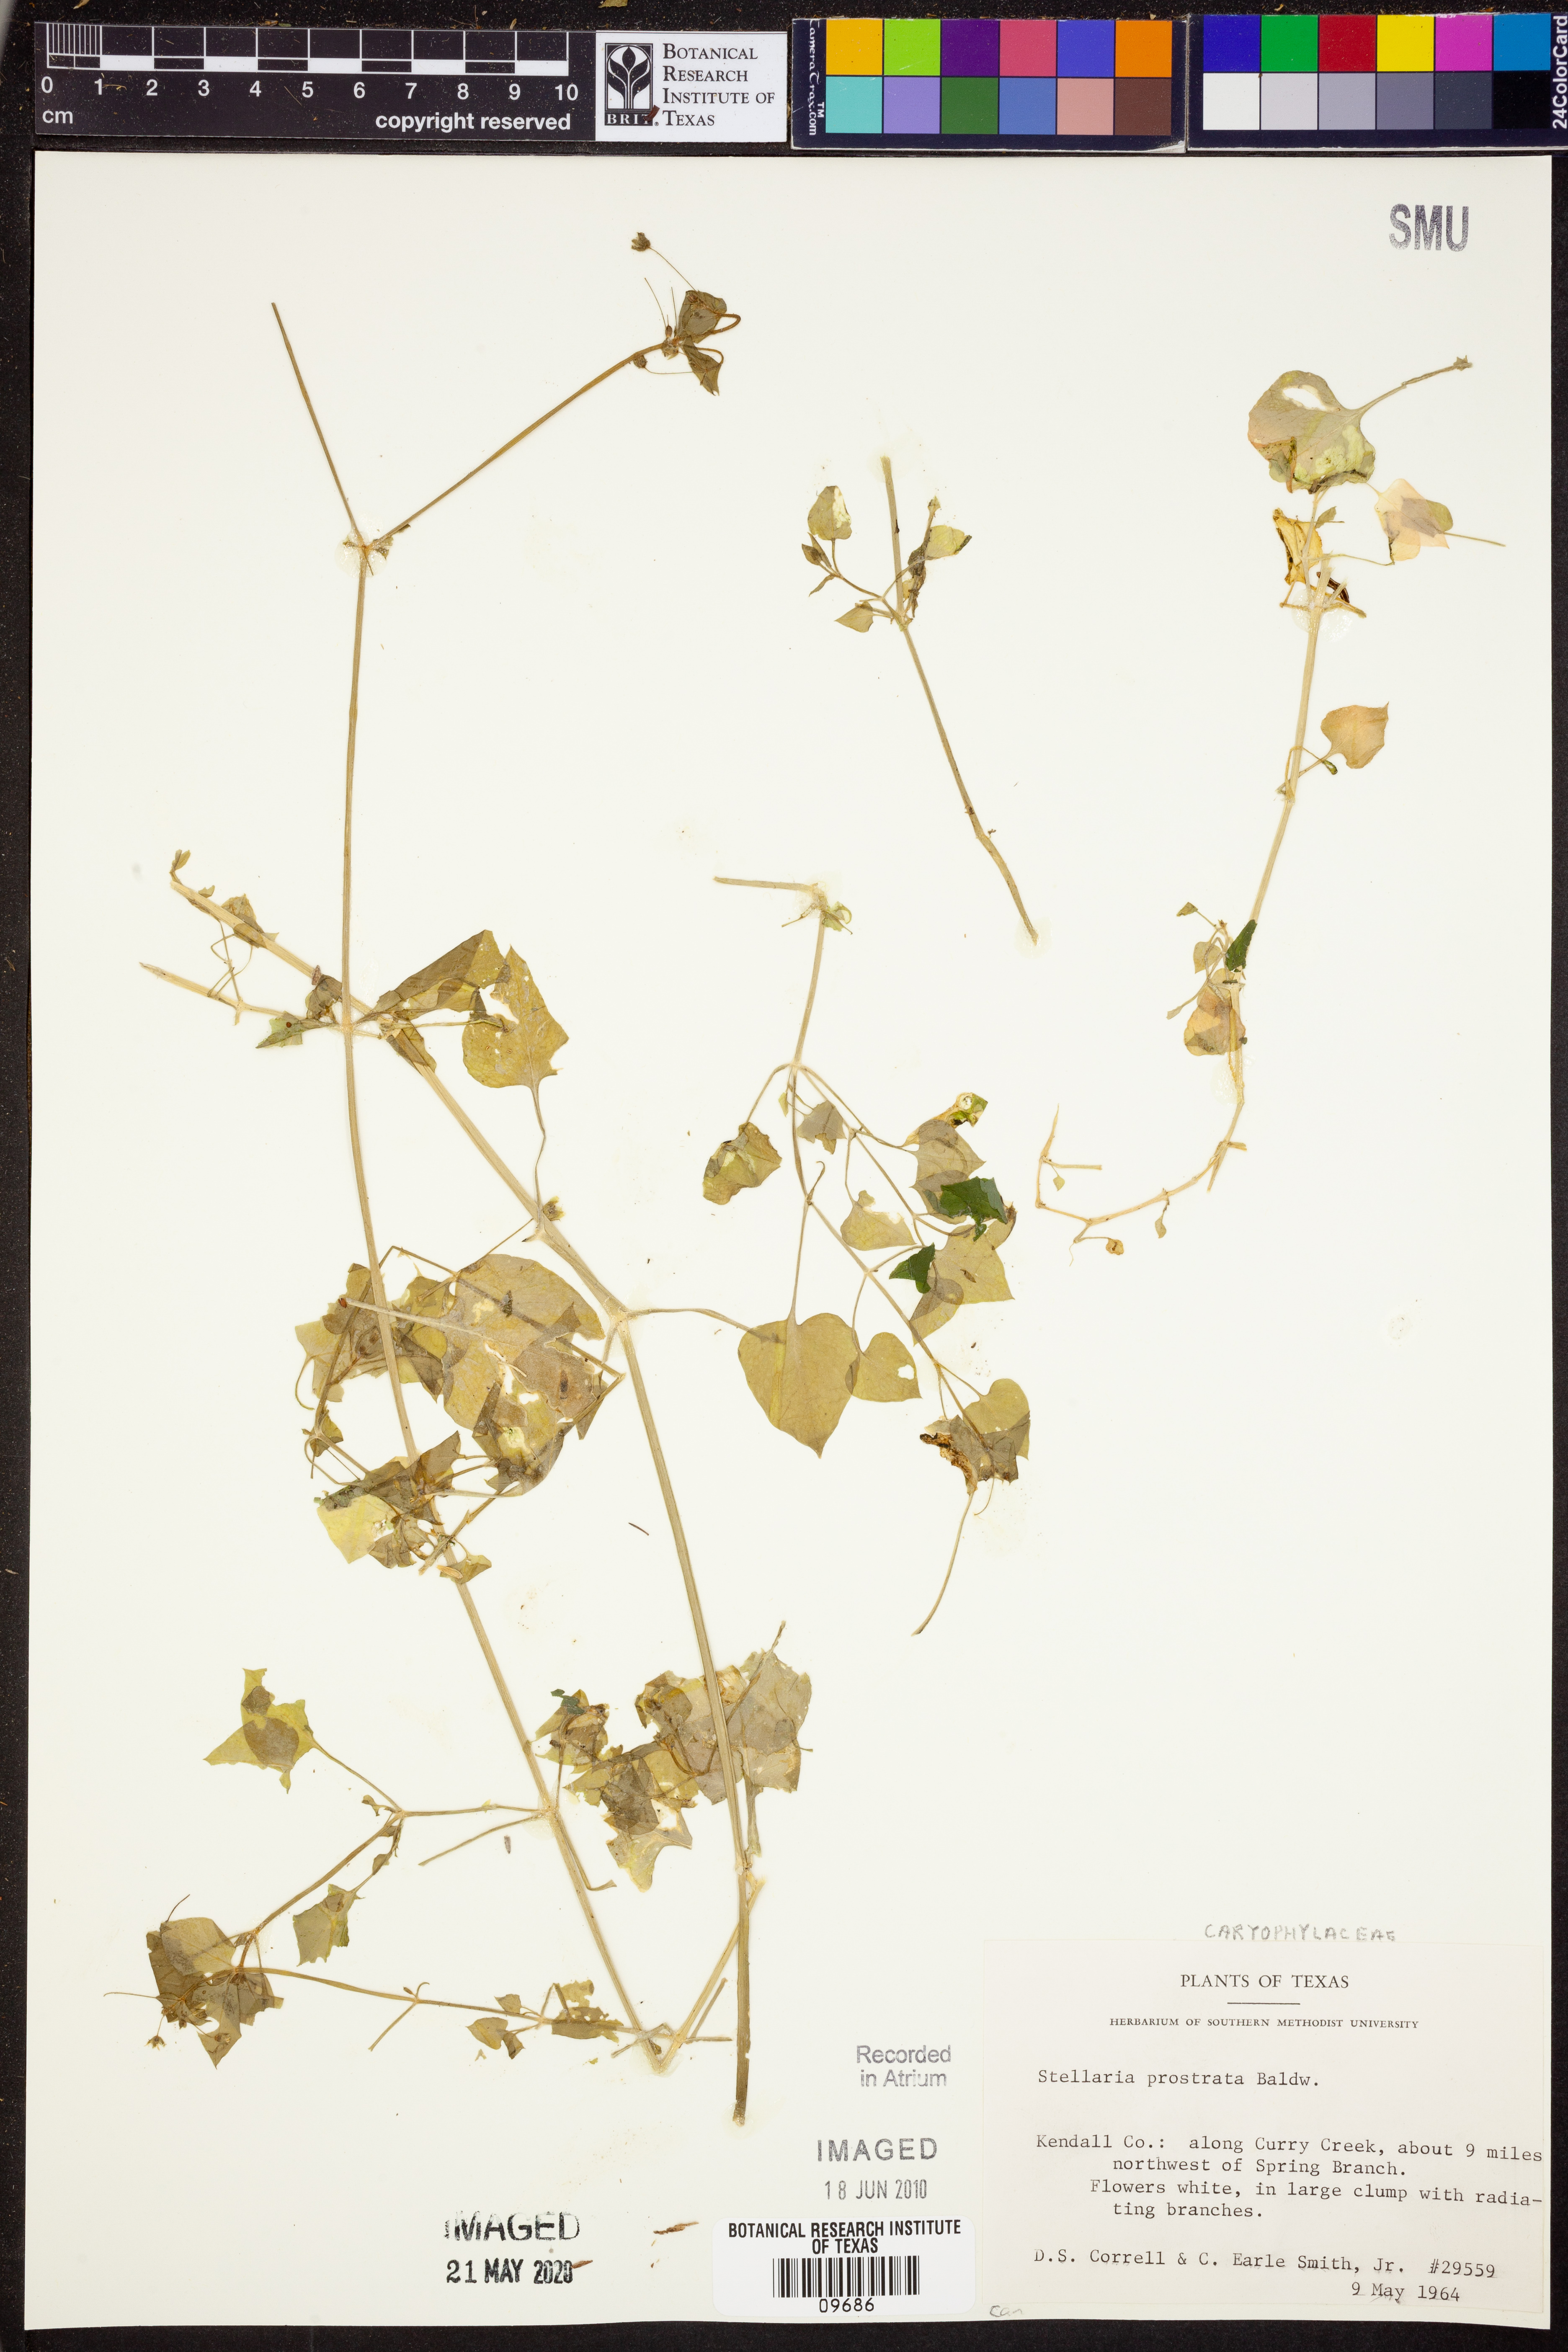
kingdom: Plantae
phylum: Tracheophyta
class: Magnoliopsida
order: Caryophyllales
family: Caryophyllaceae
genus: Stellaria
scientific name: Stellaria cuspidata
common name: Mexican chickweed
